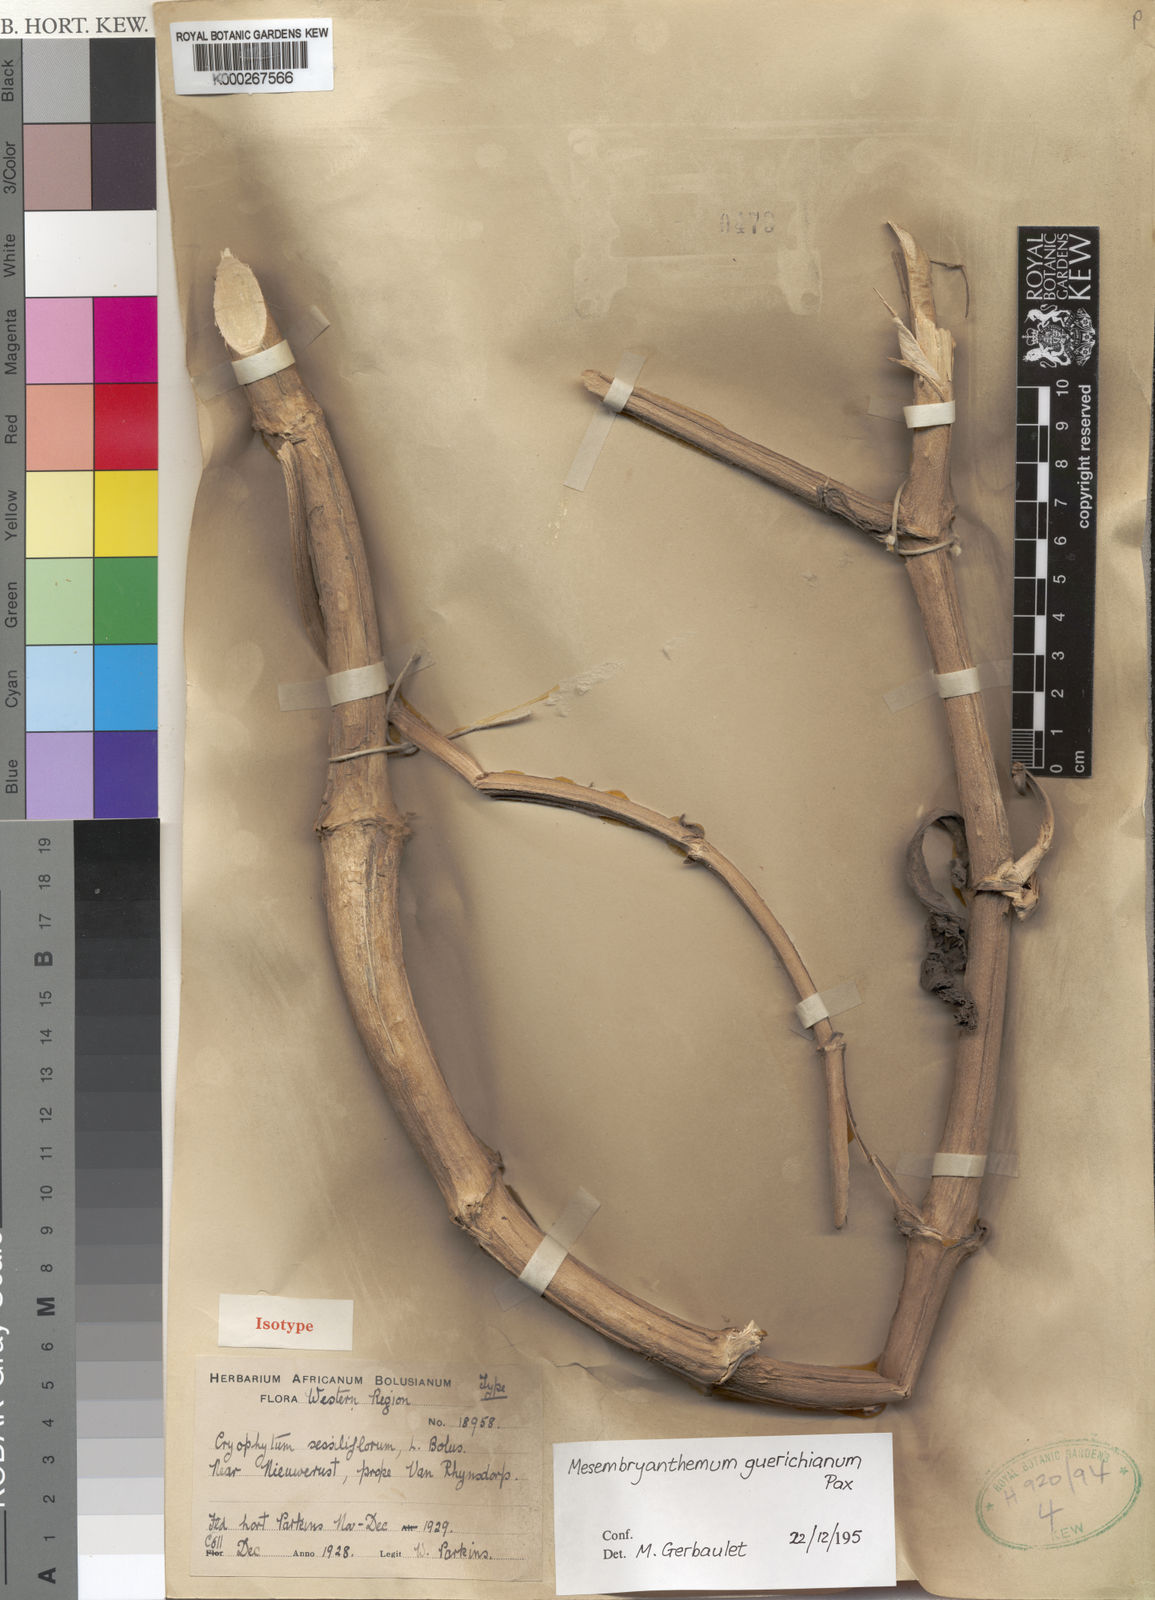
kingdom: Plantae
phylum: Tracheophyta
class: Magnoliopsida
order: Caryophyllales
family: Aizoaceae
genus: Mesembryanthemum
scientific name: Mesembryanthemum guerichianum
